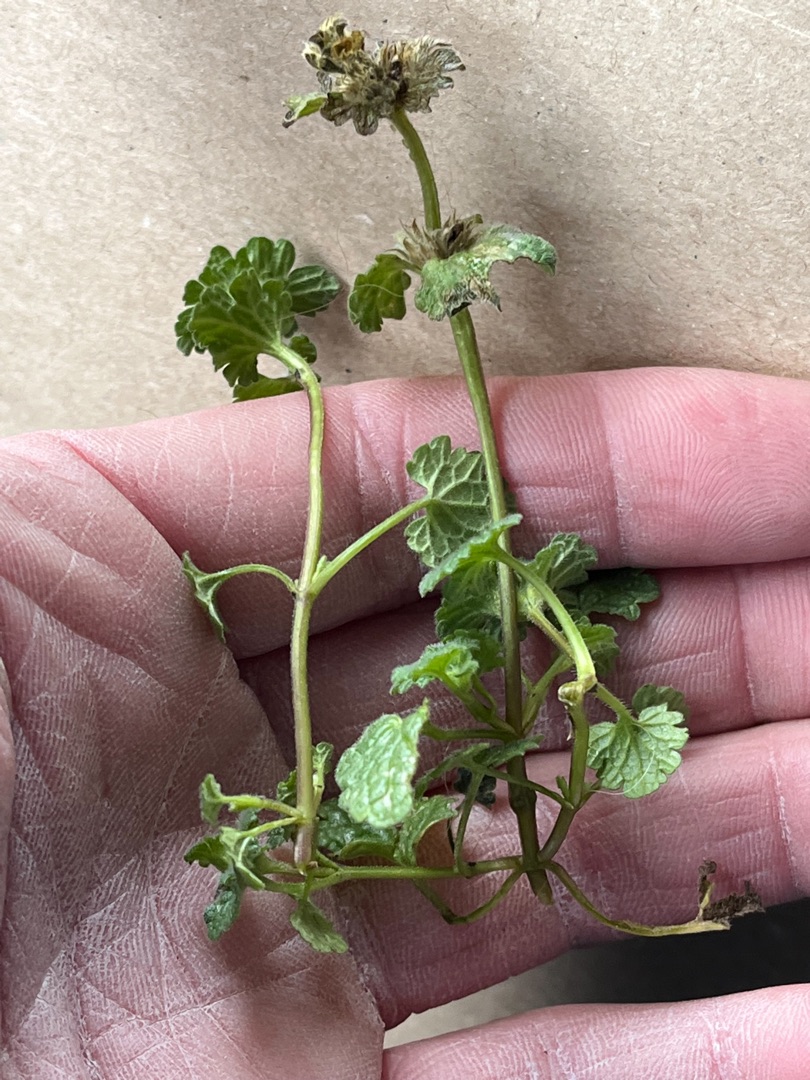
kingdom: Plantae
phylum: Tracheophyta
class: Magnoliopsida
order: Lamiales
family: Lamiaceae
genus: Lamium
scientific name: Lamium amplexicaule
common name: Liden tvetand
